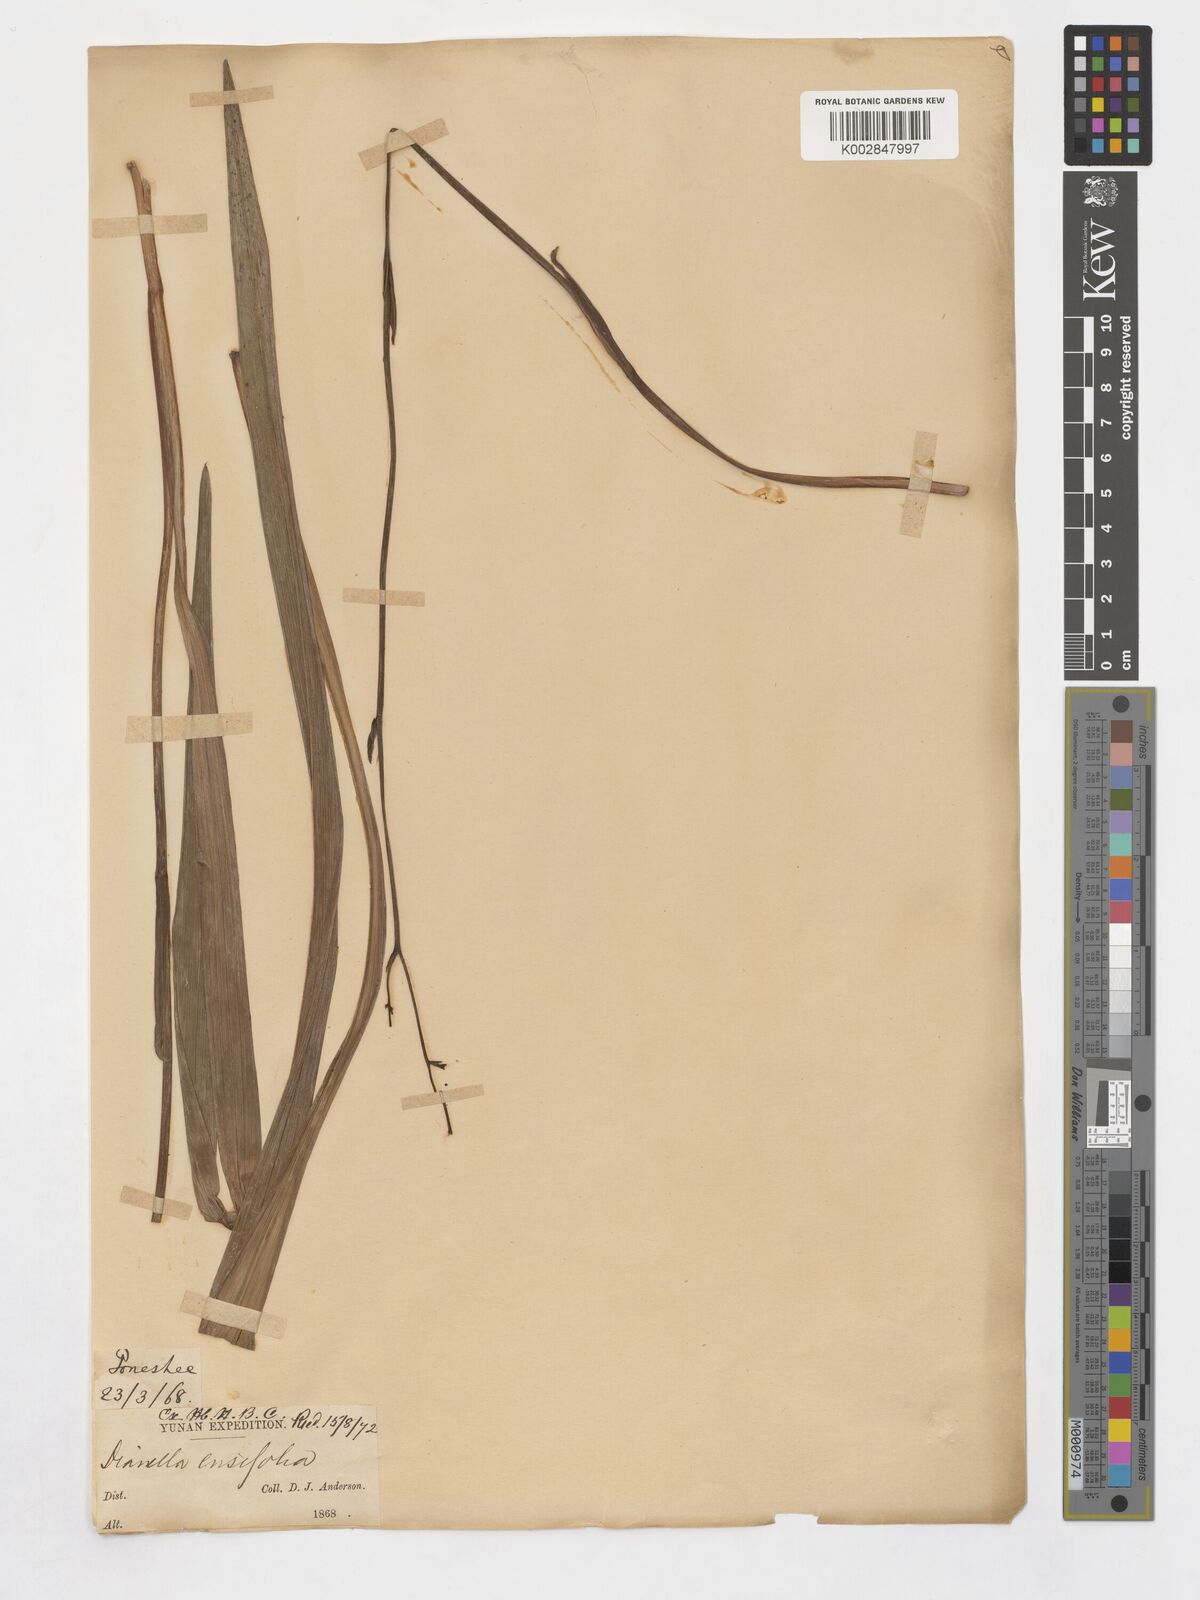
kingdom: Plantae
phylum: Tracheophyta
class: Liliopsida
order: Asparagales
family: Asphodelaceae
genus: Dianella
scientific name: Dianella ensifolia
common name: New zealand lilyplant
